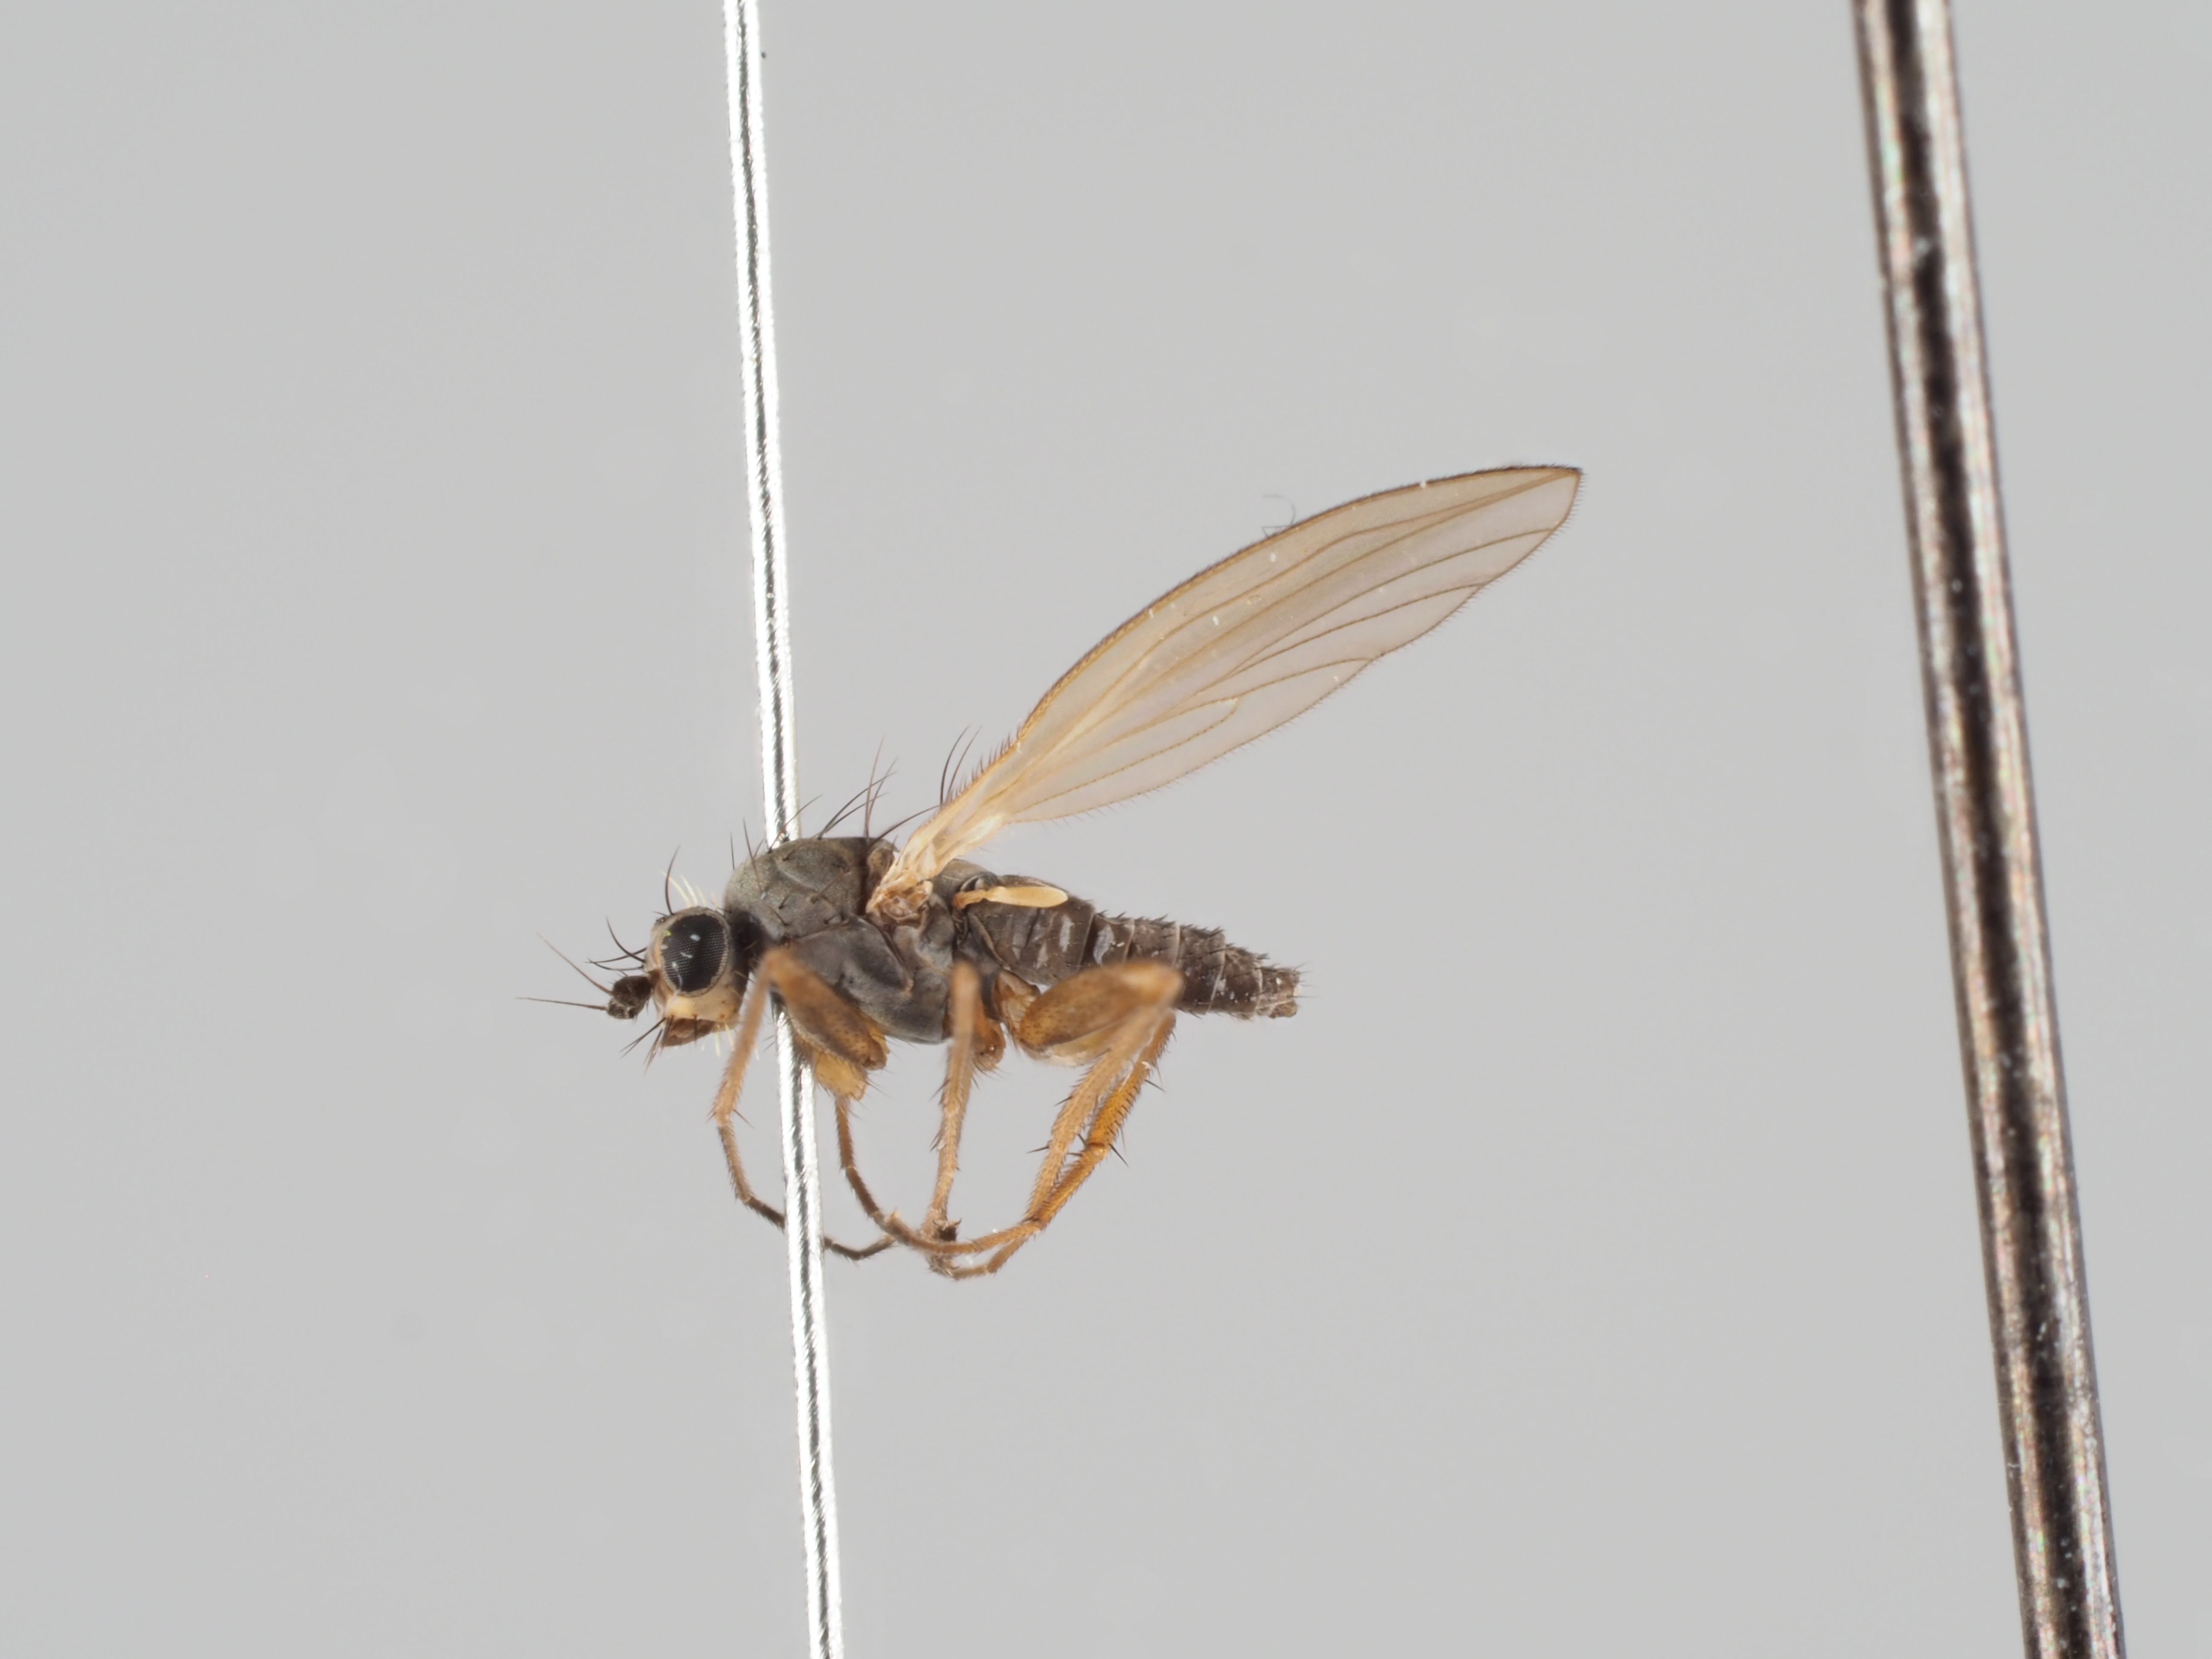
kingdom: Animalia
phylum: Arthropoda
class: Insecta
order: Diptera
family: Lonchopteridae
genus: Lonchoptera
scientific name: Lonchoptera bifurcata
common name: Spear-winged fly
